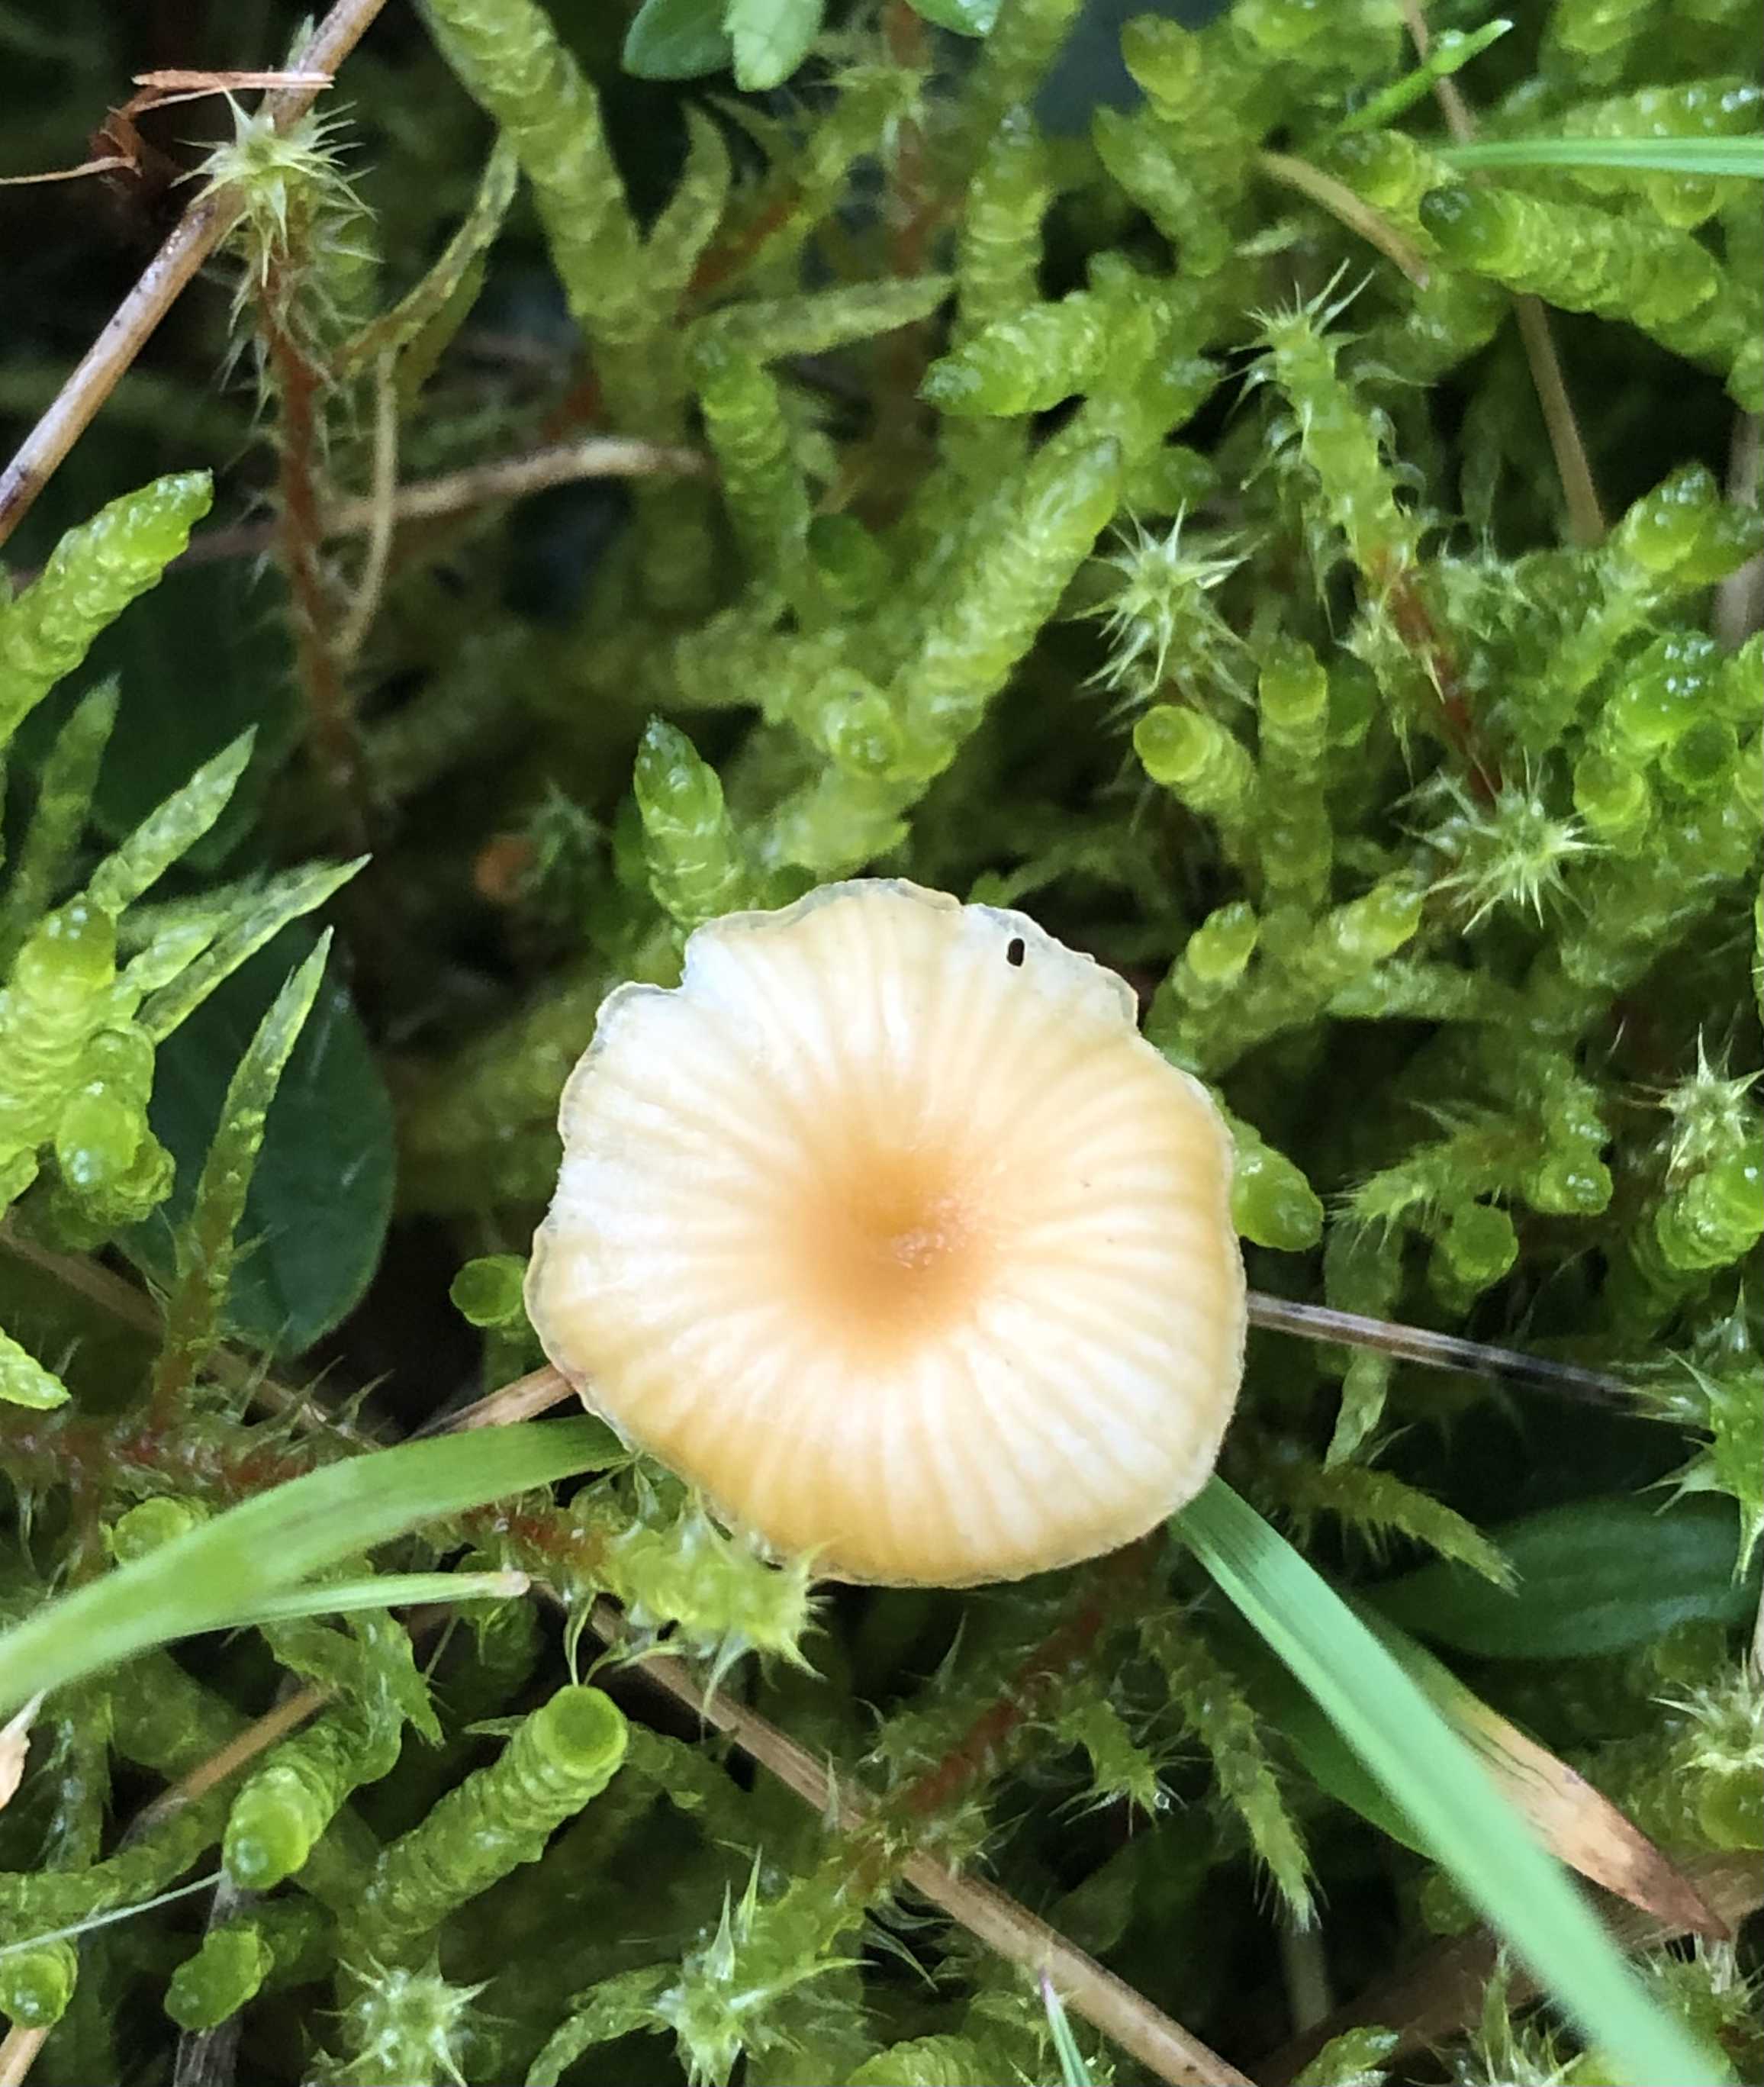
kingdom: Fungi
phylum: Basidiomycota
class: Agaricomycetes
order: Hymenochaetales
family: Rickenellaceae
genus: Rickenella
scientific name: Rickenella fibula
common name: orange mosnavlehat
